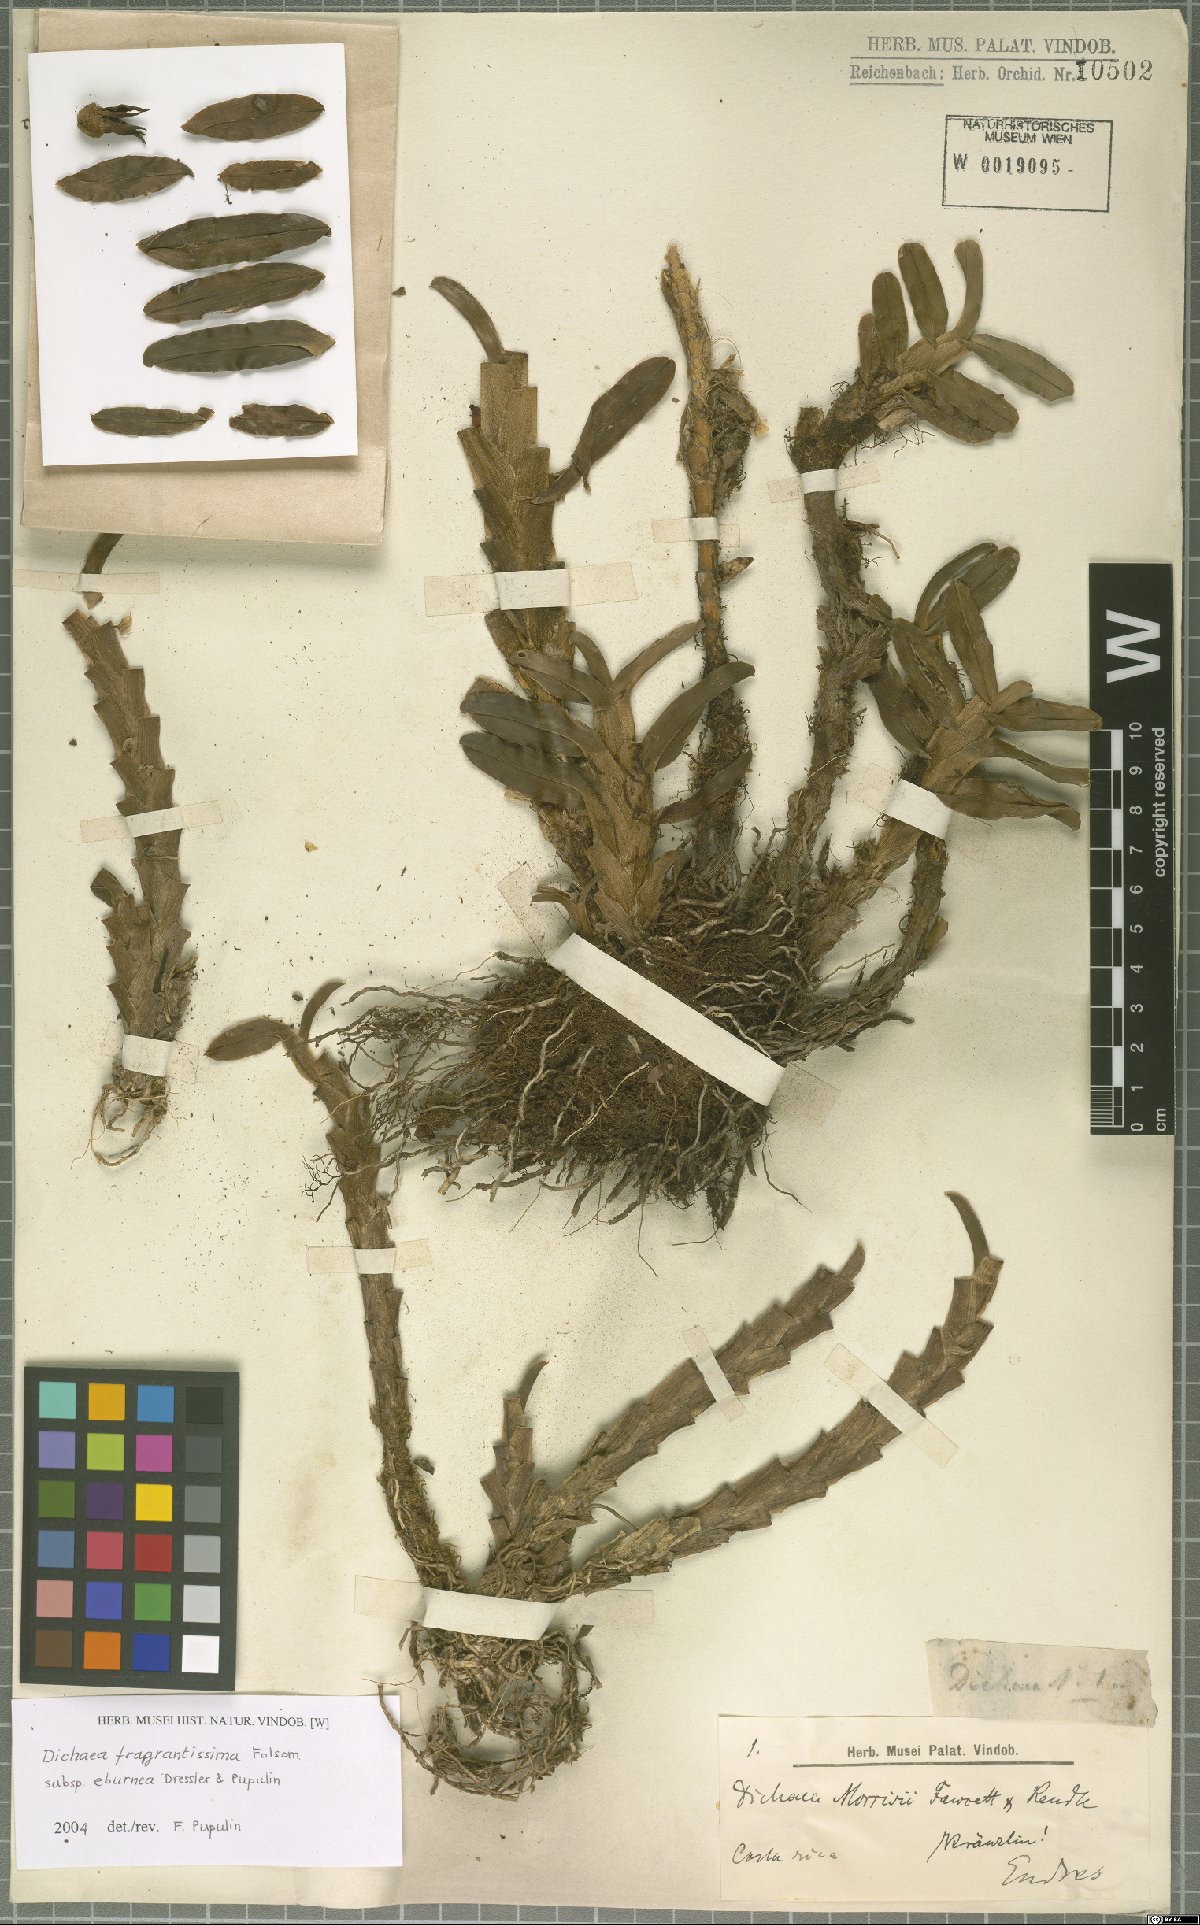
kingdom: Plantae
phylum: Tracheophyta
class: Liliopsida
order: Asparagales
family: Orchidaceae
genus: Dichaea
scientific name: Dichaea eburnea
